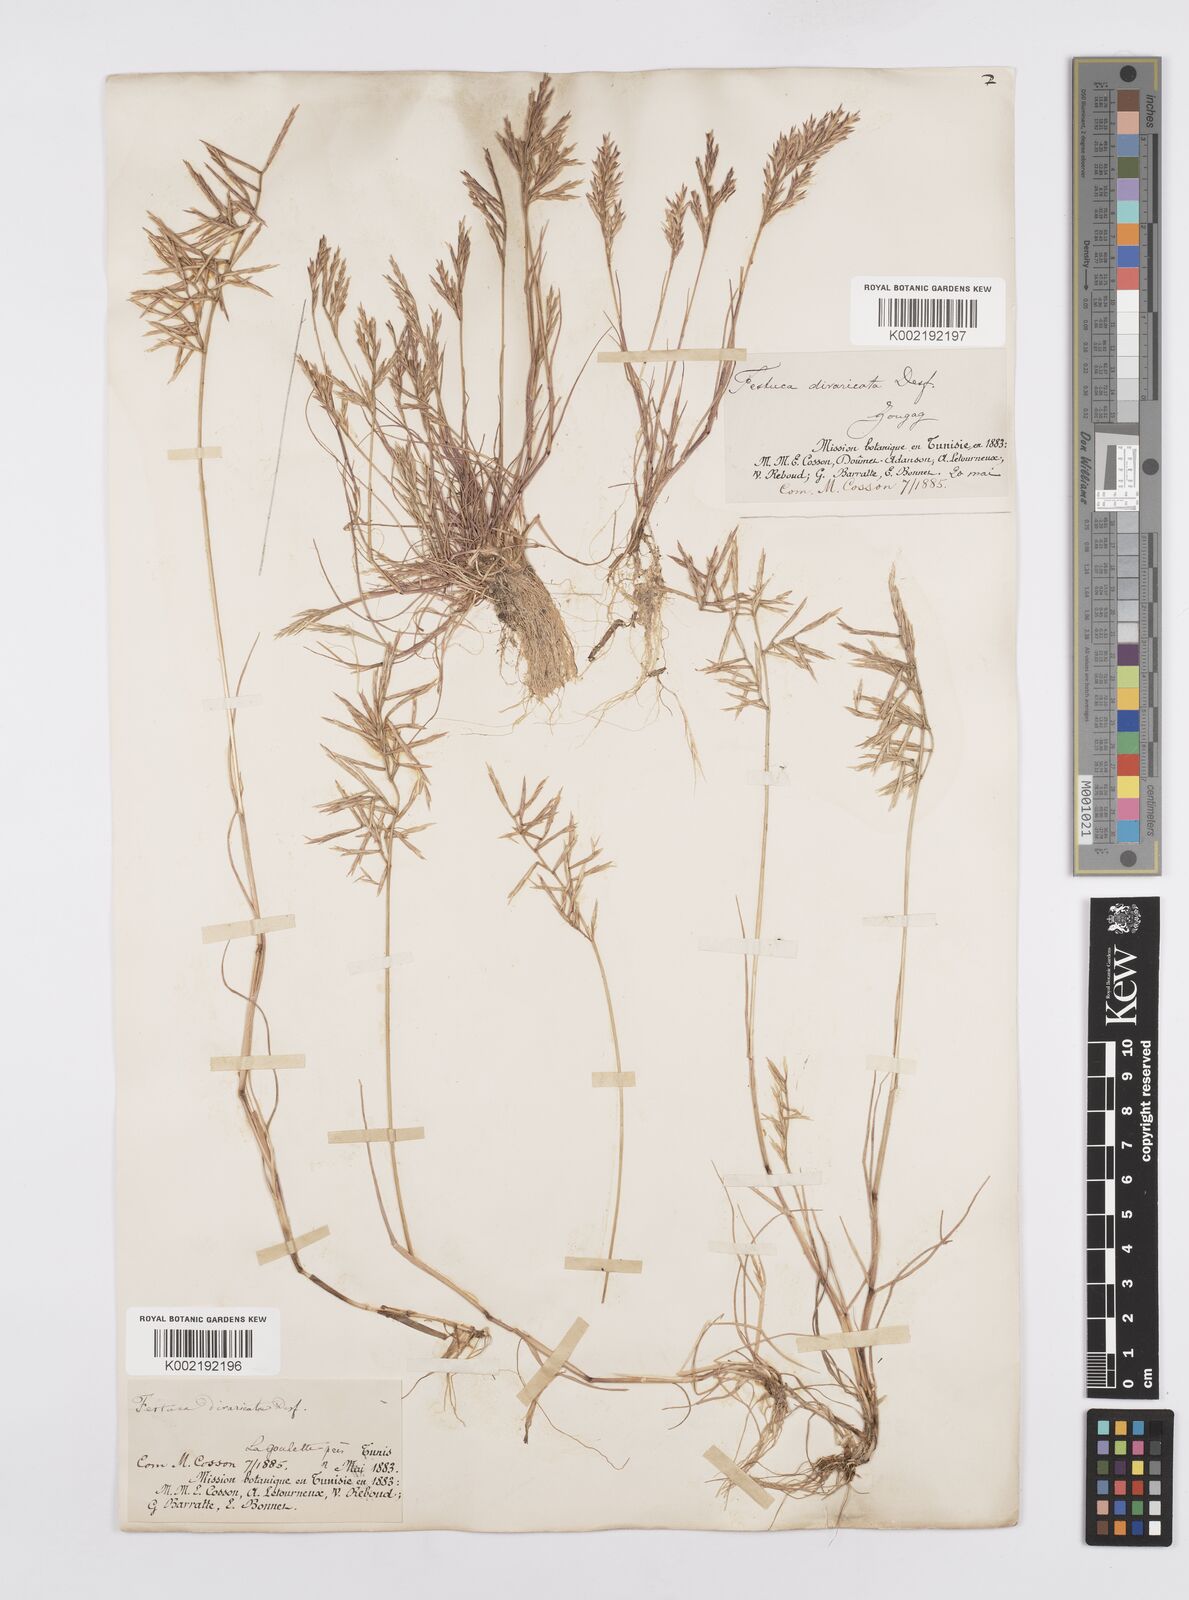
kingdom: Plantae
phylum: Tracheophyta
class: Liliopsida
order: Poales
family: Poaceae
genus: Cutandia
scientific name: Cutandia divaricata
